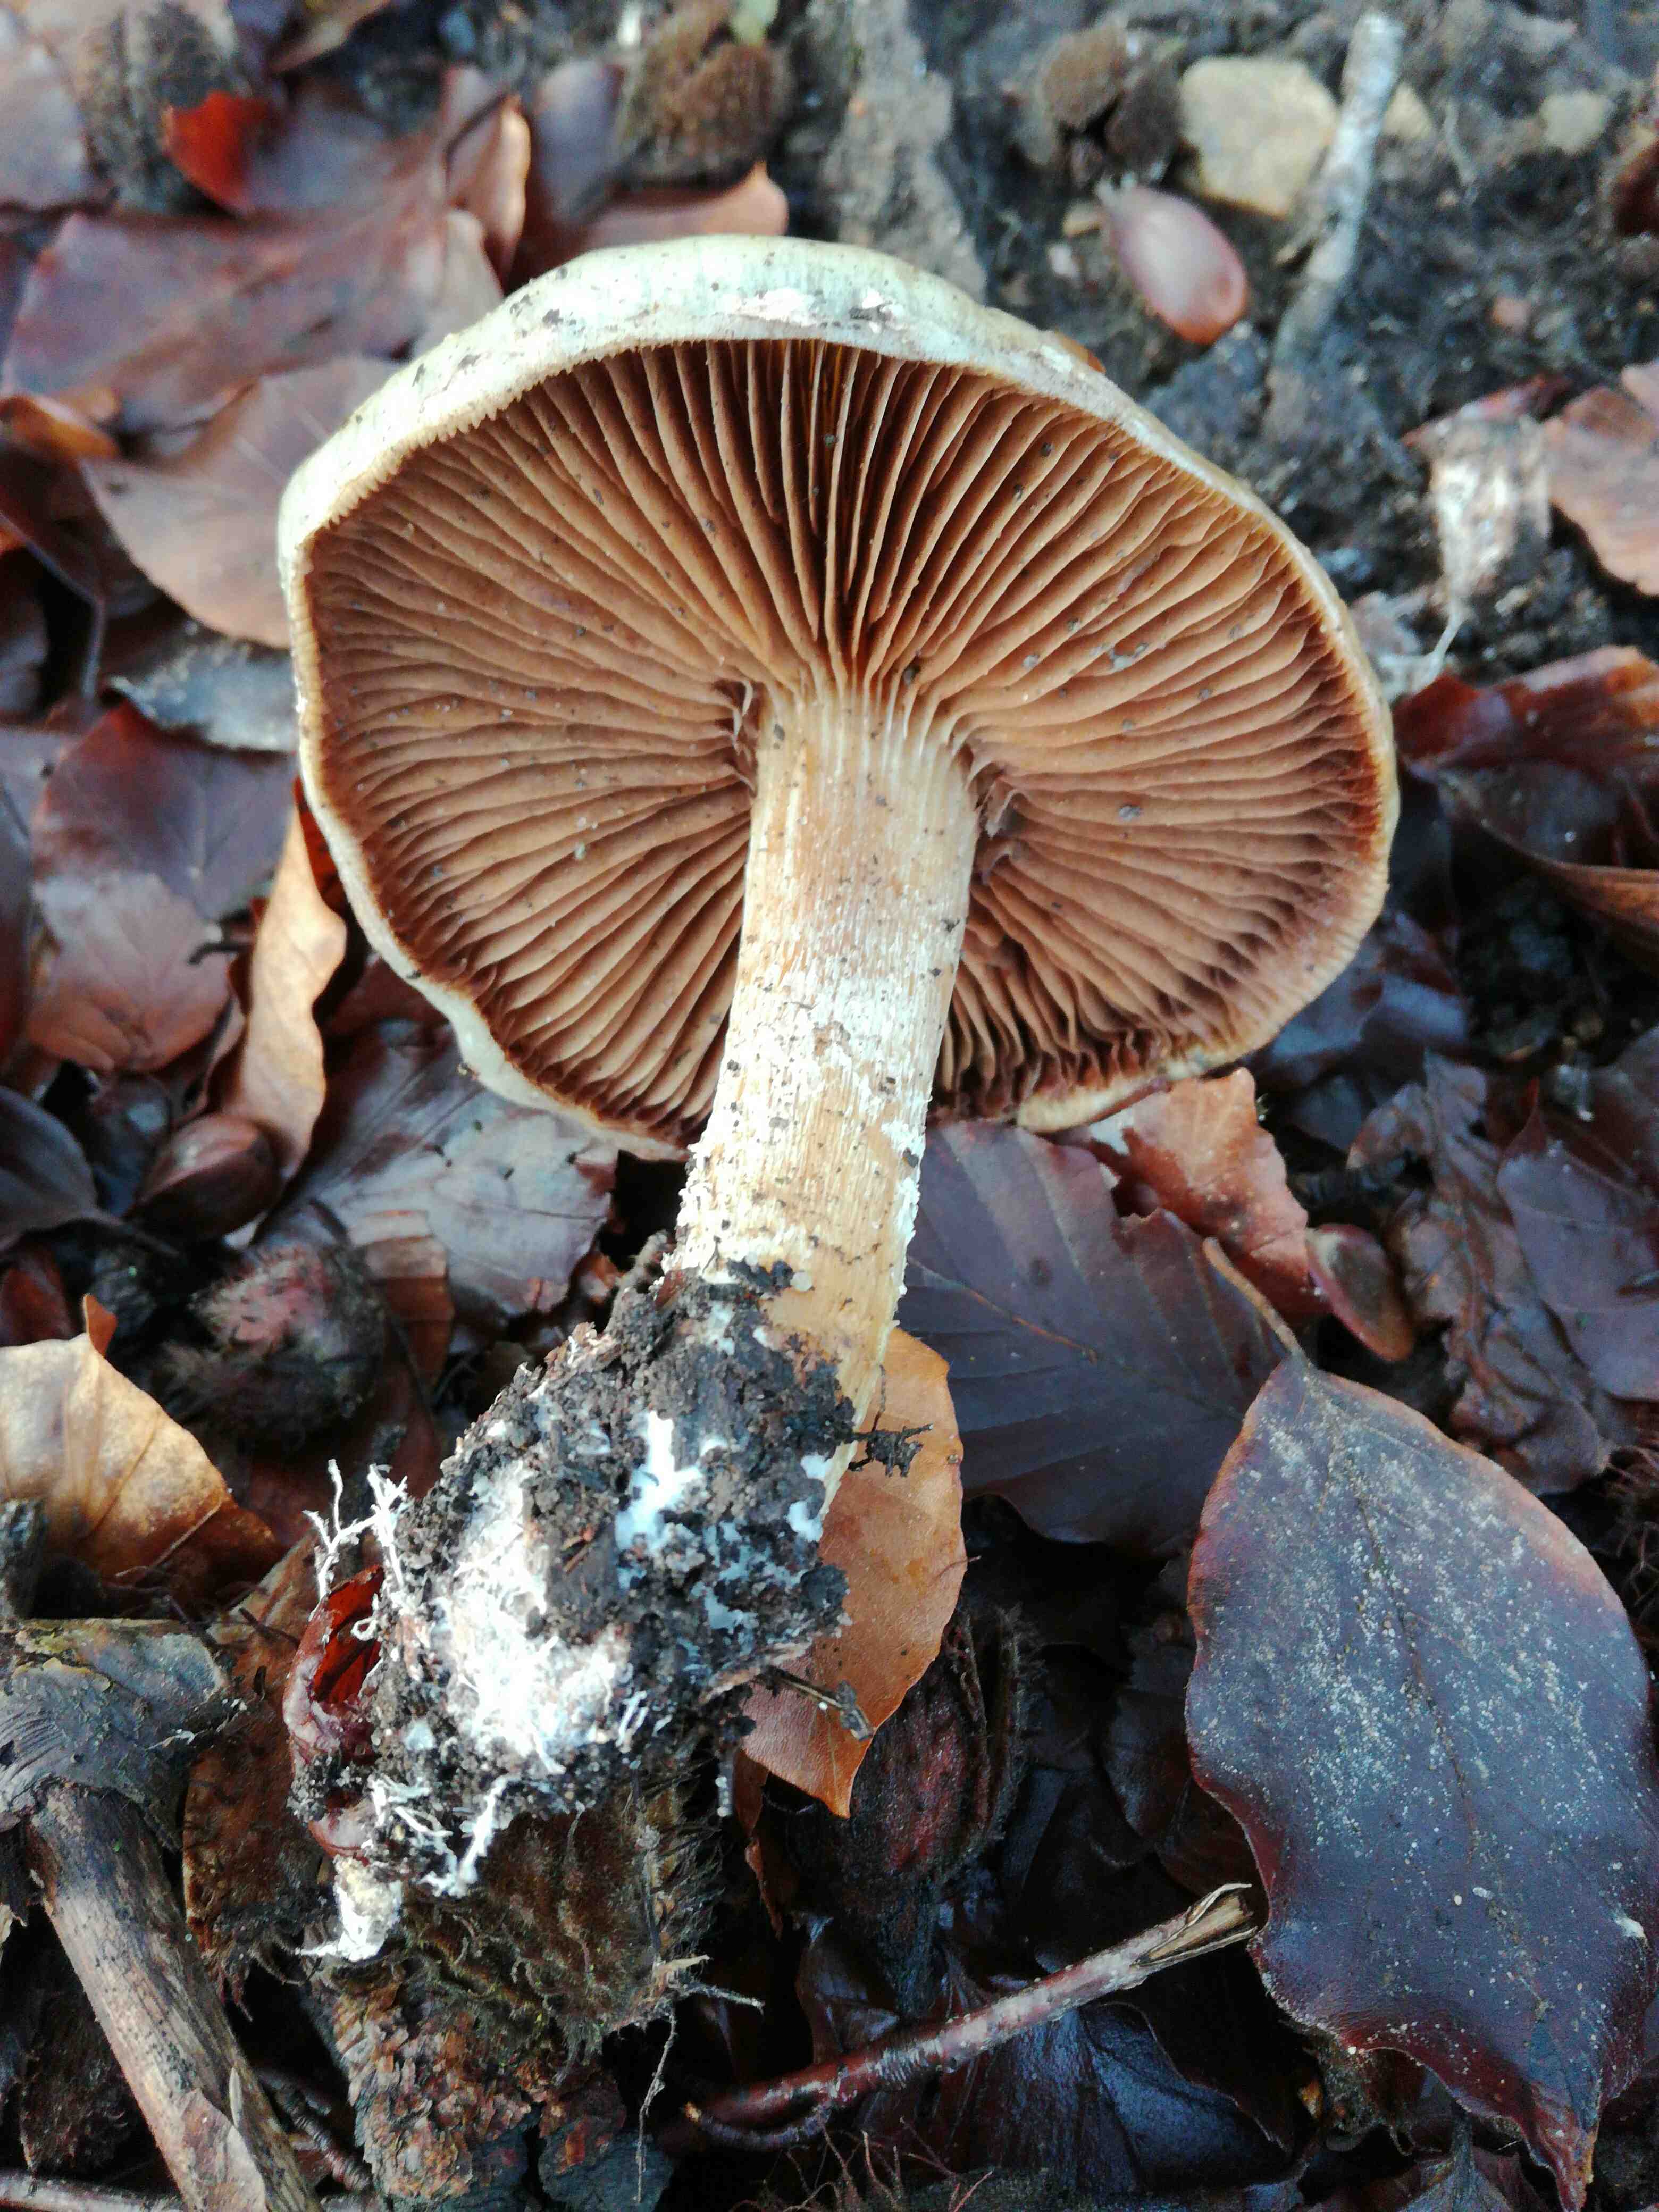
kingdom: Fungi
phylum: Basidiomycota
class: Agaricomycetes
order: Agaricales
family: Strophariaceae
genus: Pholiota
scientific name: Pholiota lenta
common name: løv-skælhat
